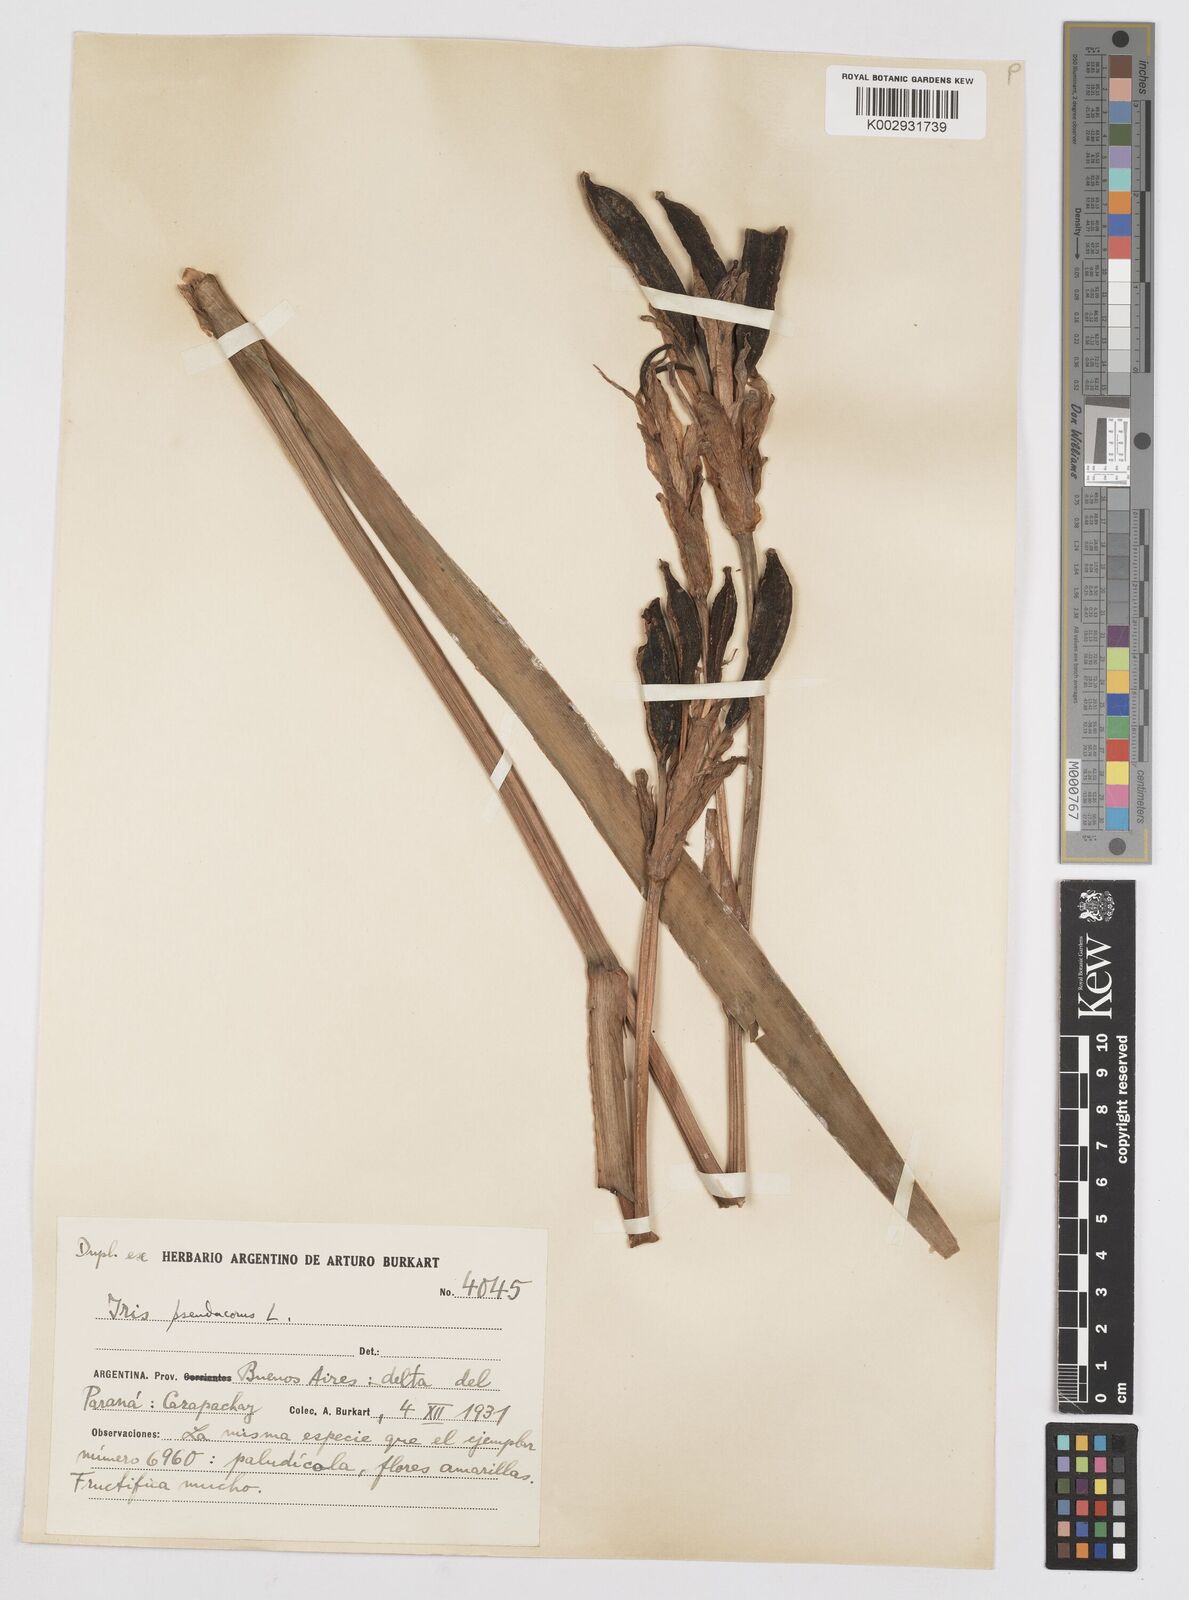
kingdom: Plantae
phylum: Tracheophyta
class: Liliopsida
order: Asparagales
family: Iridaceae
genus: Iris
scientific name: Iris pseudacorus
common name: Yellow flag
